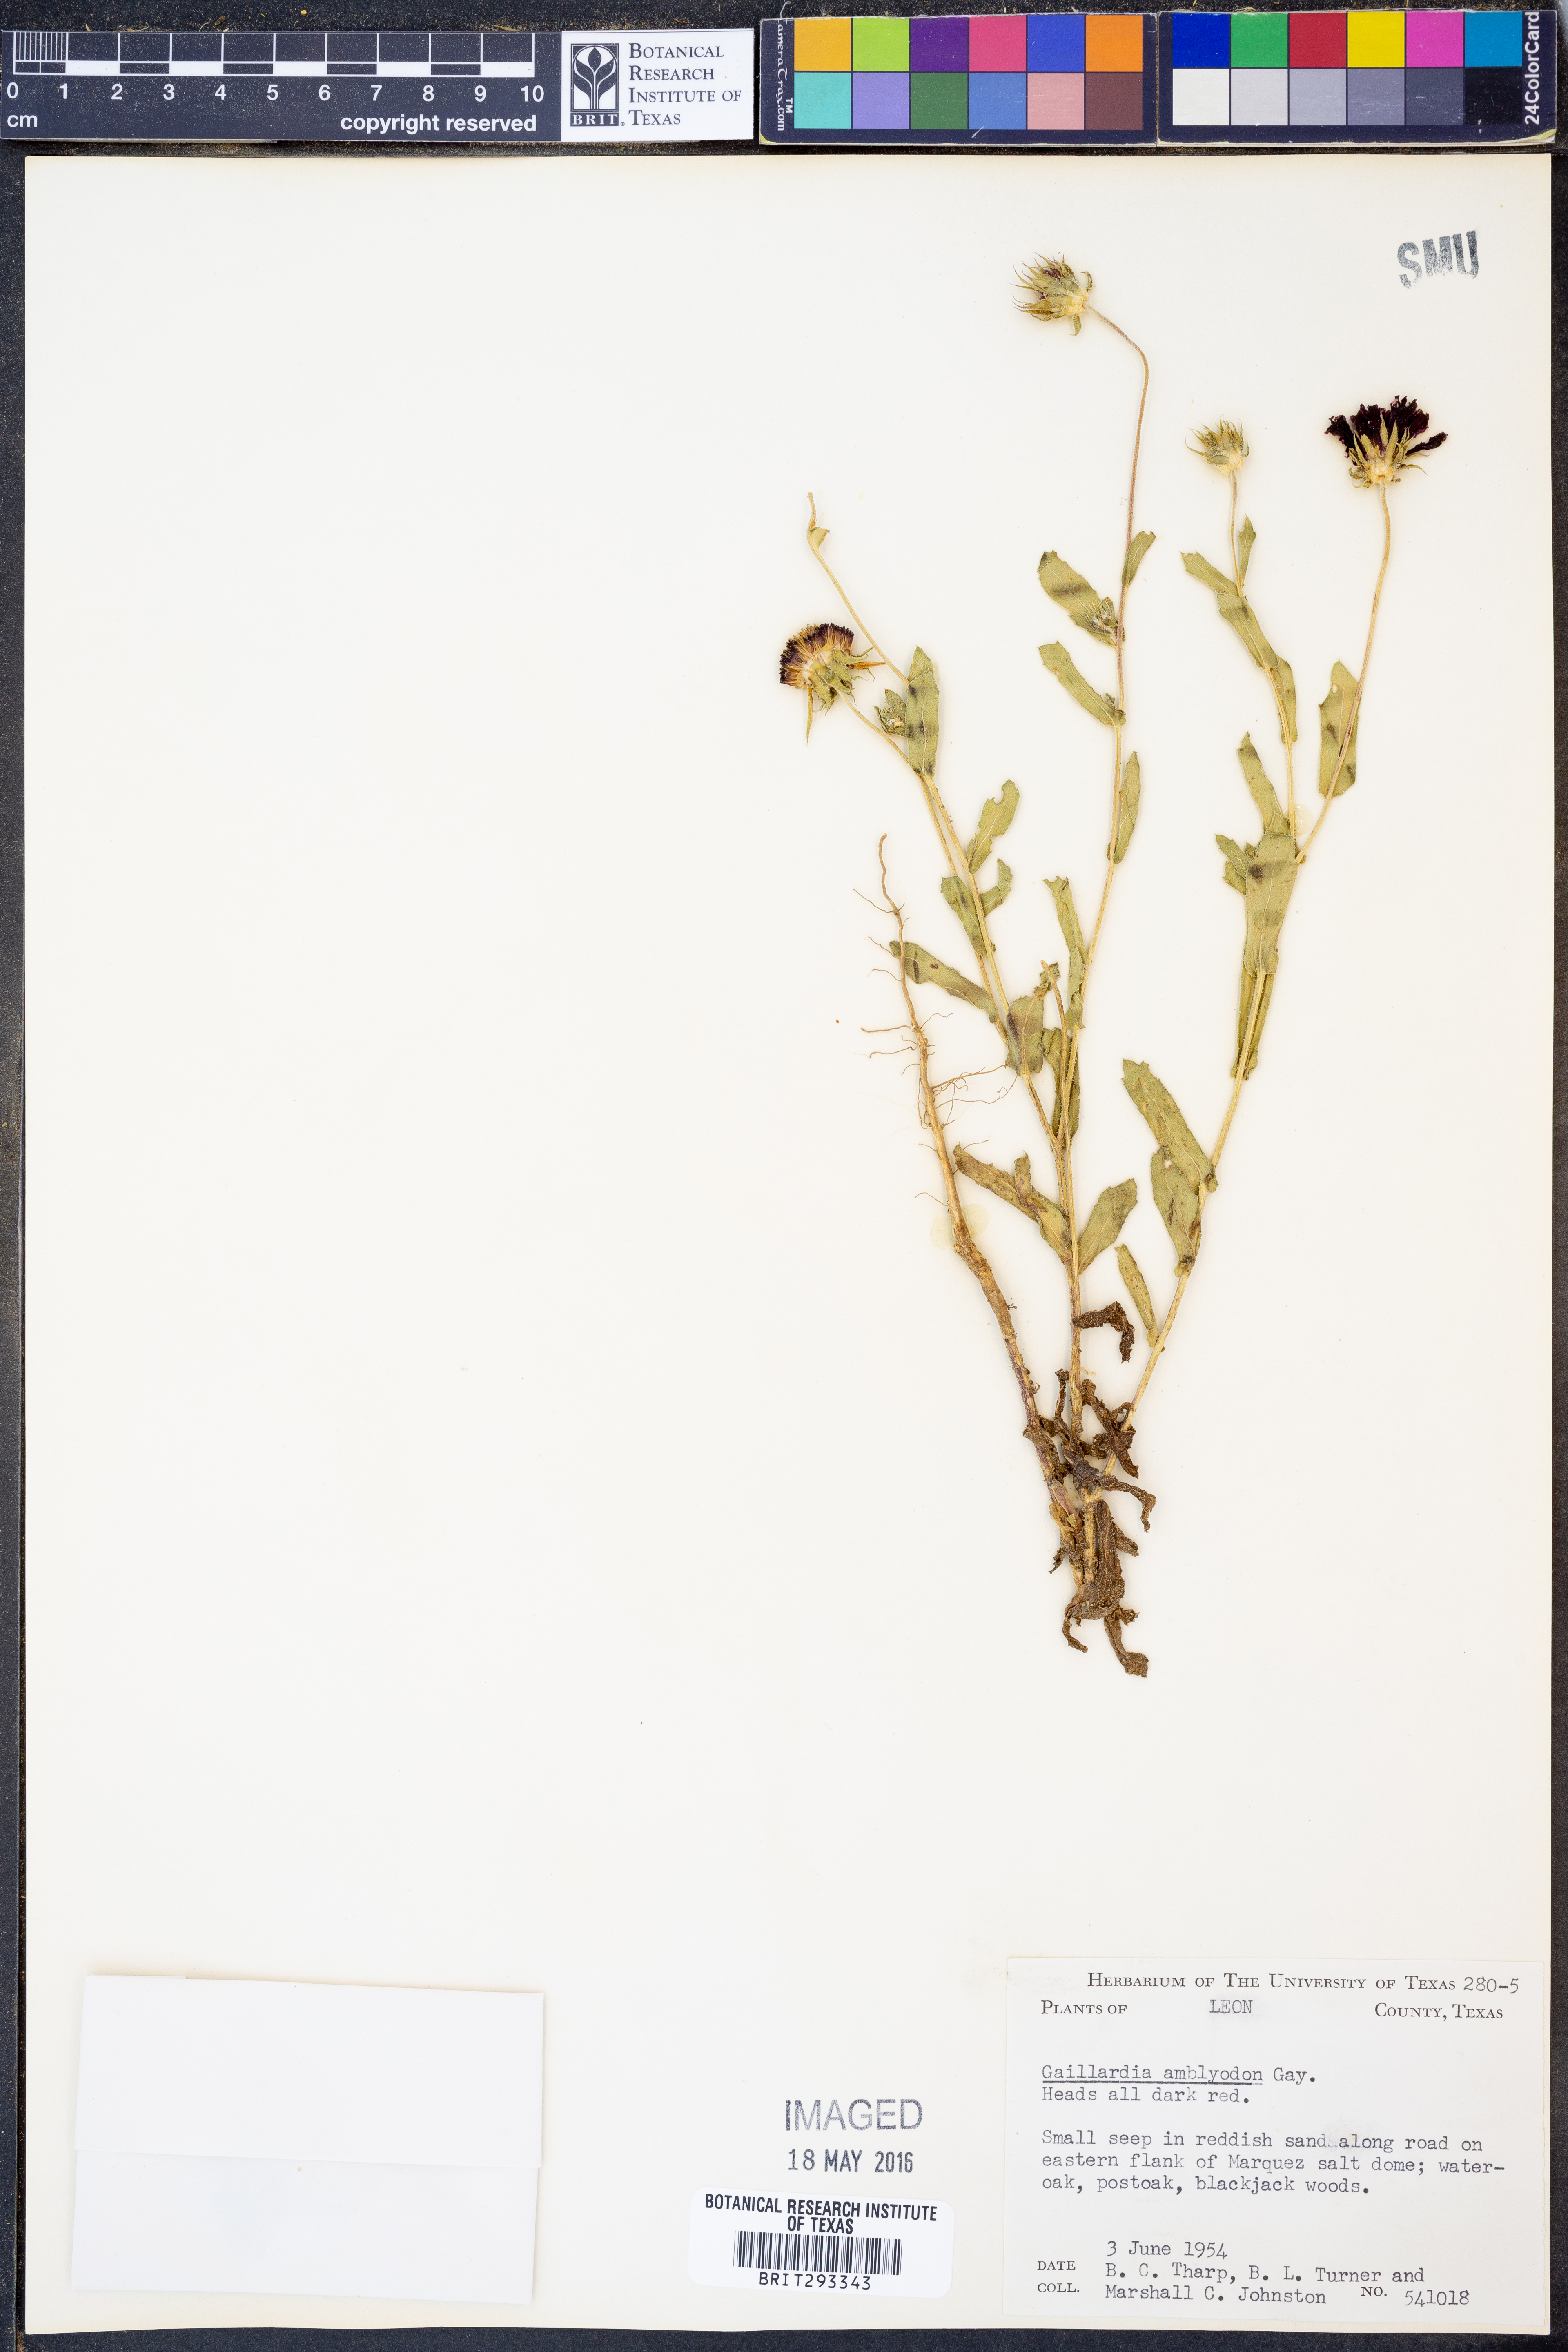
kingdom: Plantae
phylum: Tracheophyta
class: Magnoliopsida
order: Asterales
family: Asteraceae
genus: Gaillardia
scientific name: Gaillardia amblyodon
